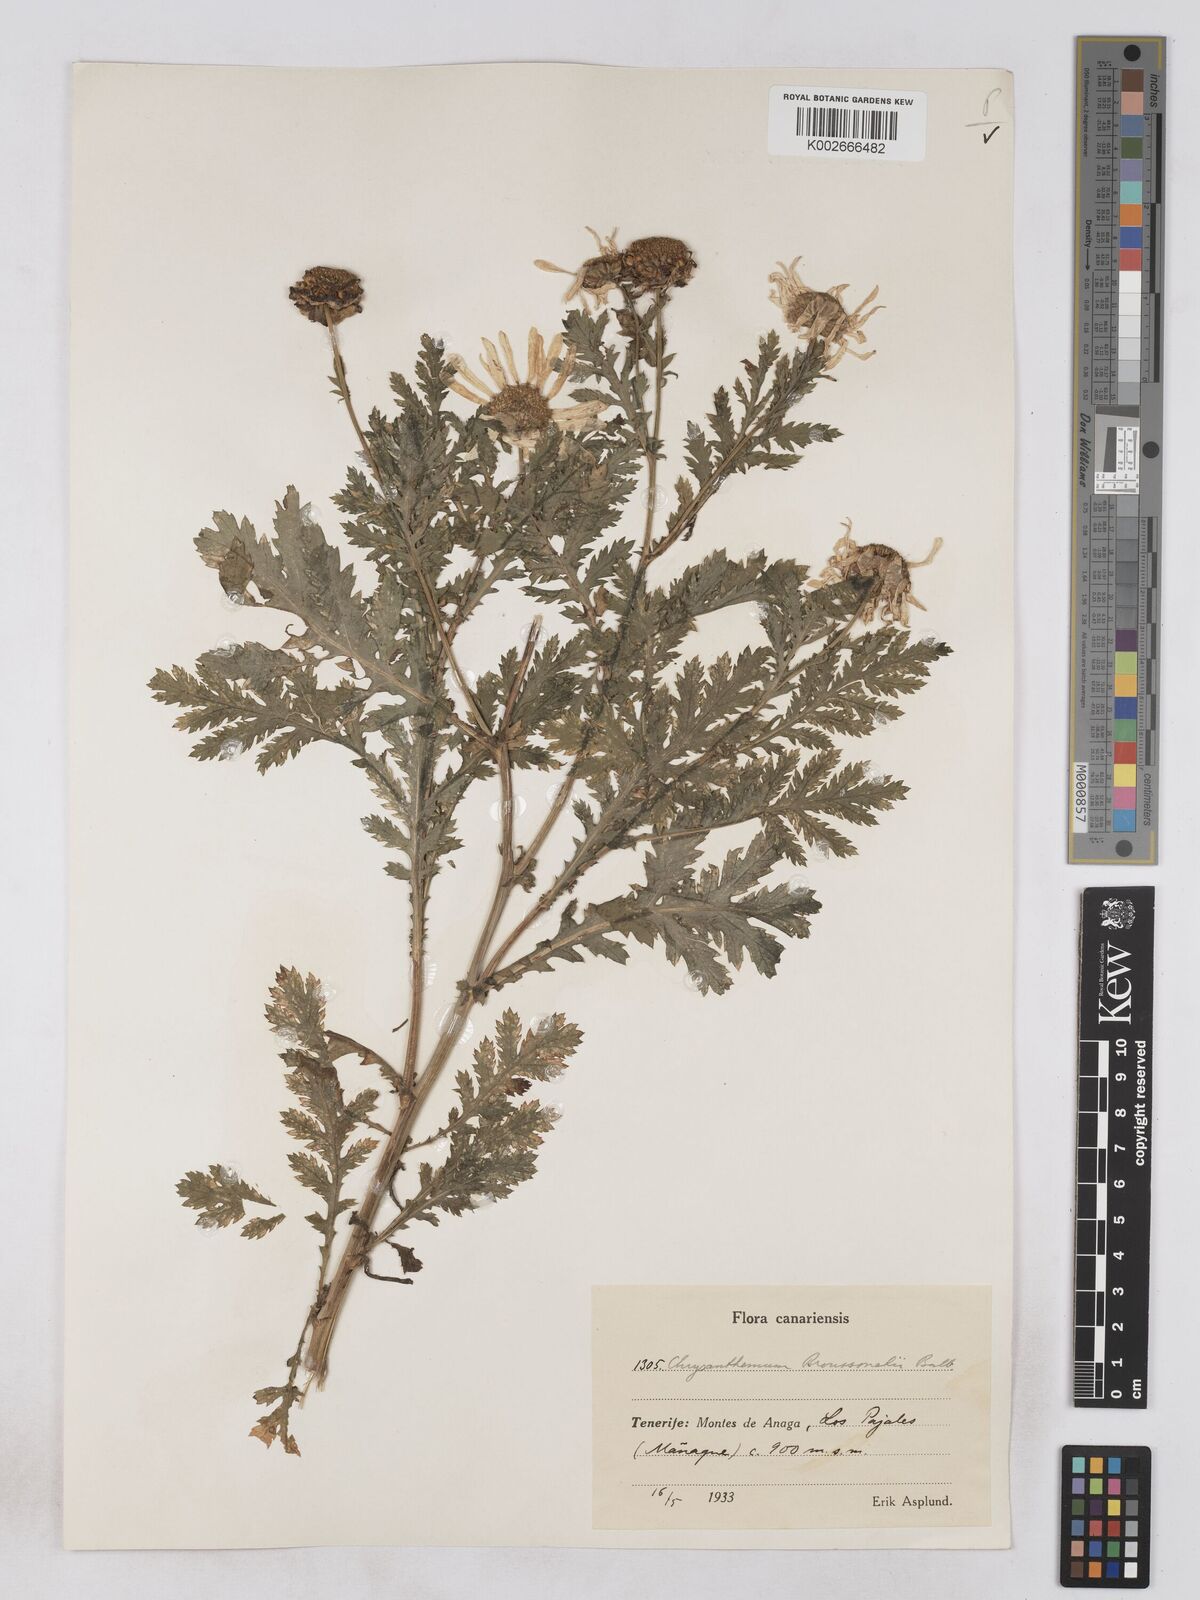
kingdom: Plantae
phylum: Tracheophyta
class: Magnoliopsida
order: Asterales
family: Asteraceae
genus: Argyranthemum
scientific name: Argyranthemum broussonetii
